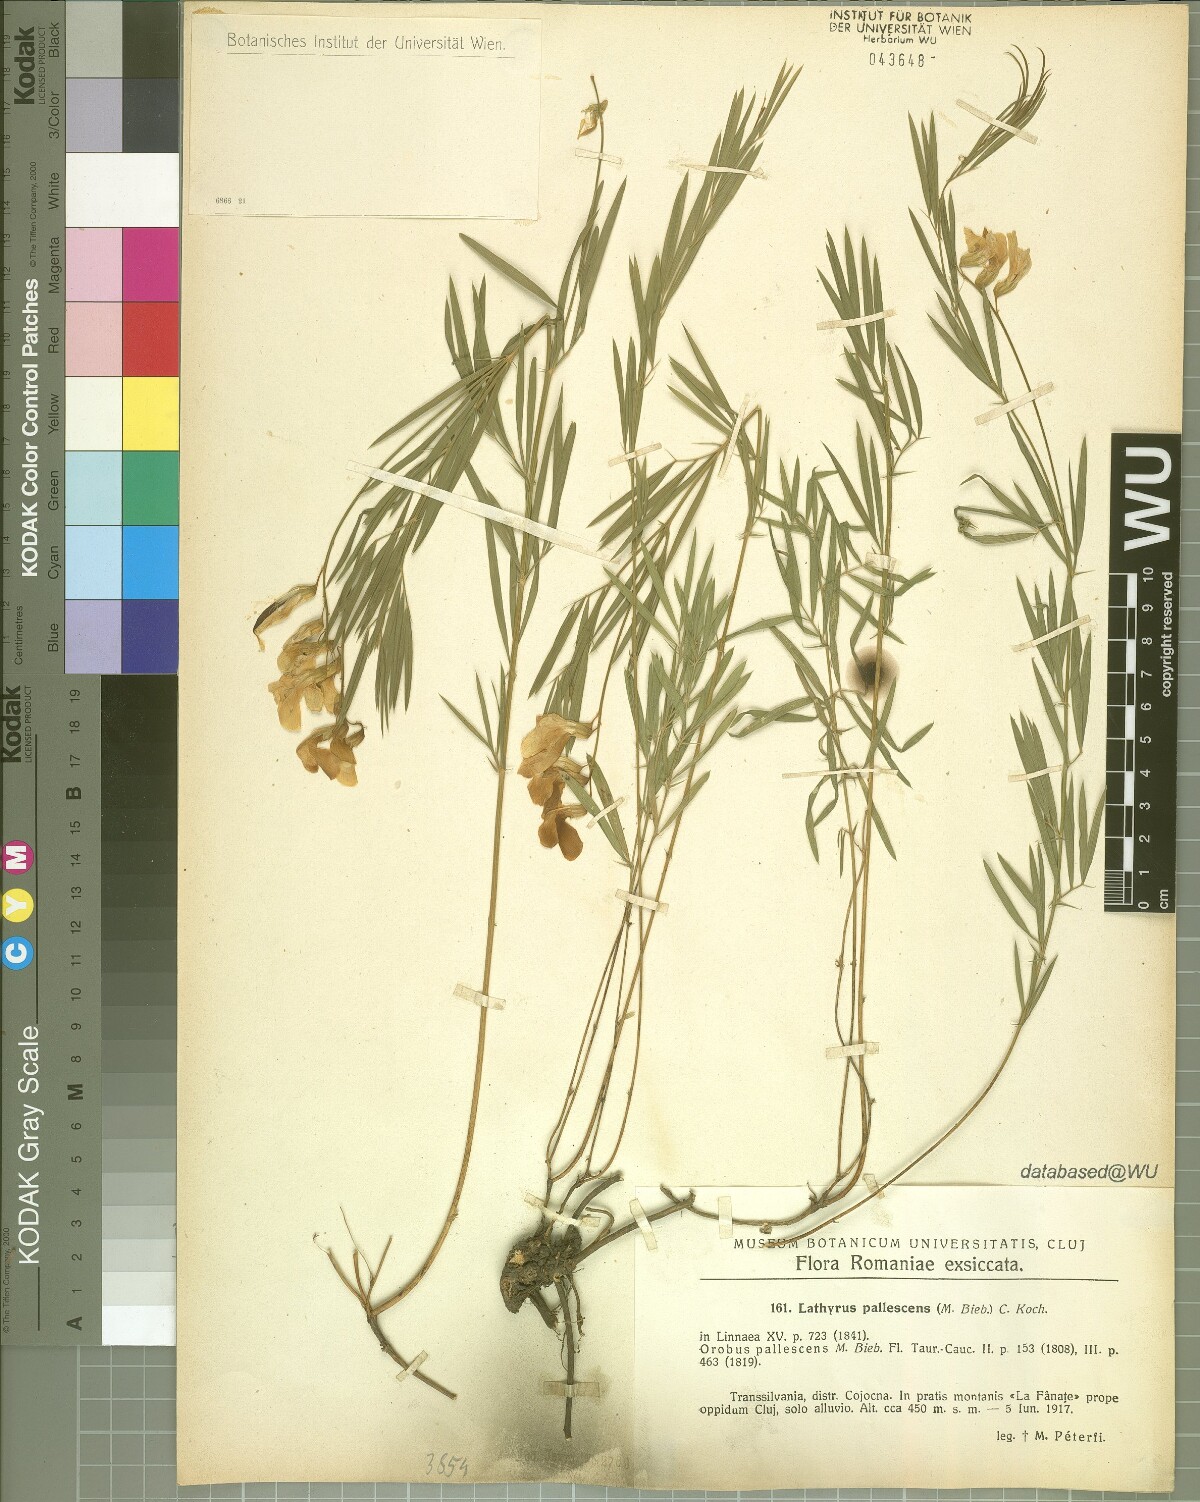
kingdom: Plantae
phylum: Tracheophyta
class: Magnoliopsida
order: Fabales
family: Fabaceae
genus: Lathyrus
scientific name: Lathyrus pallescens
